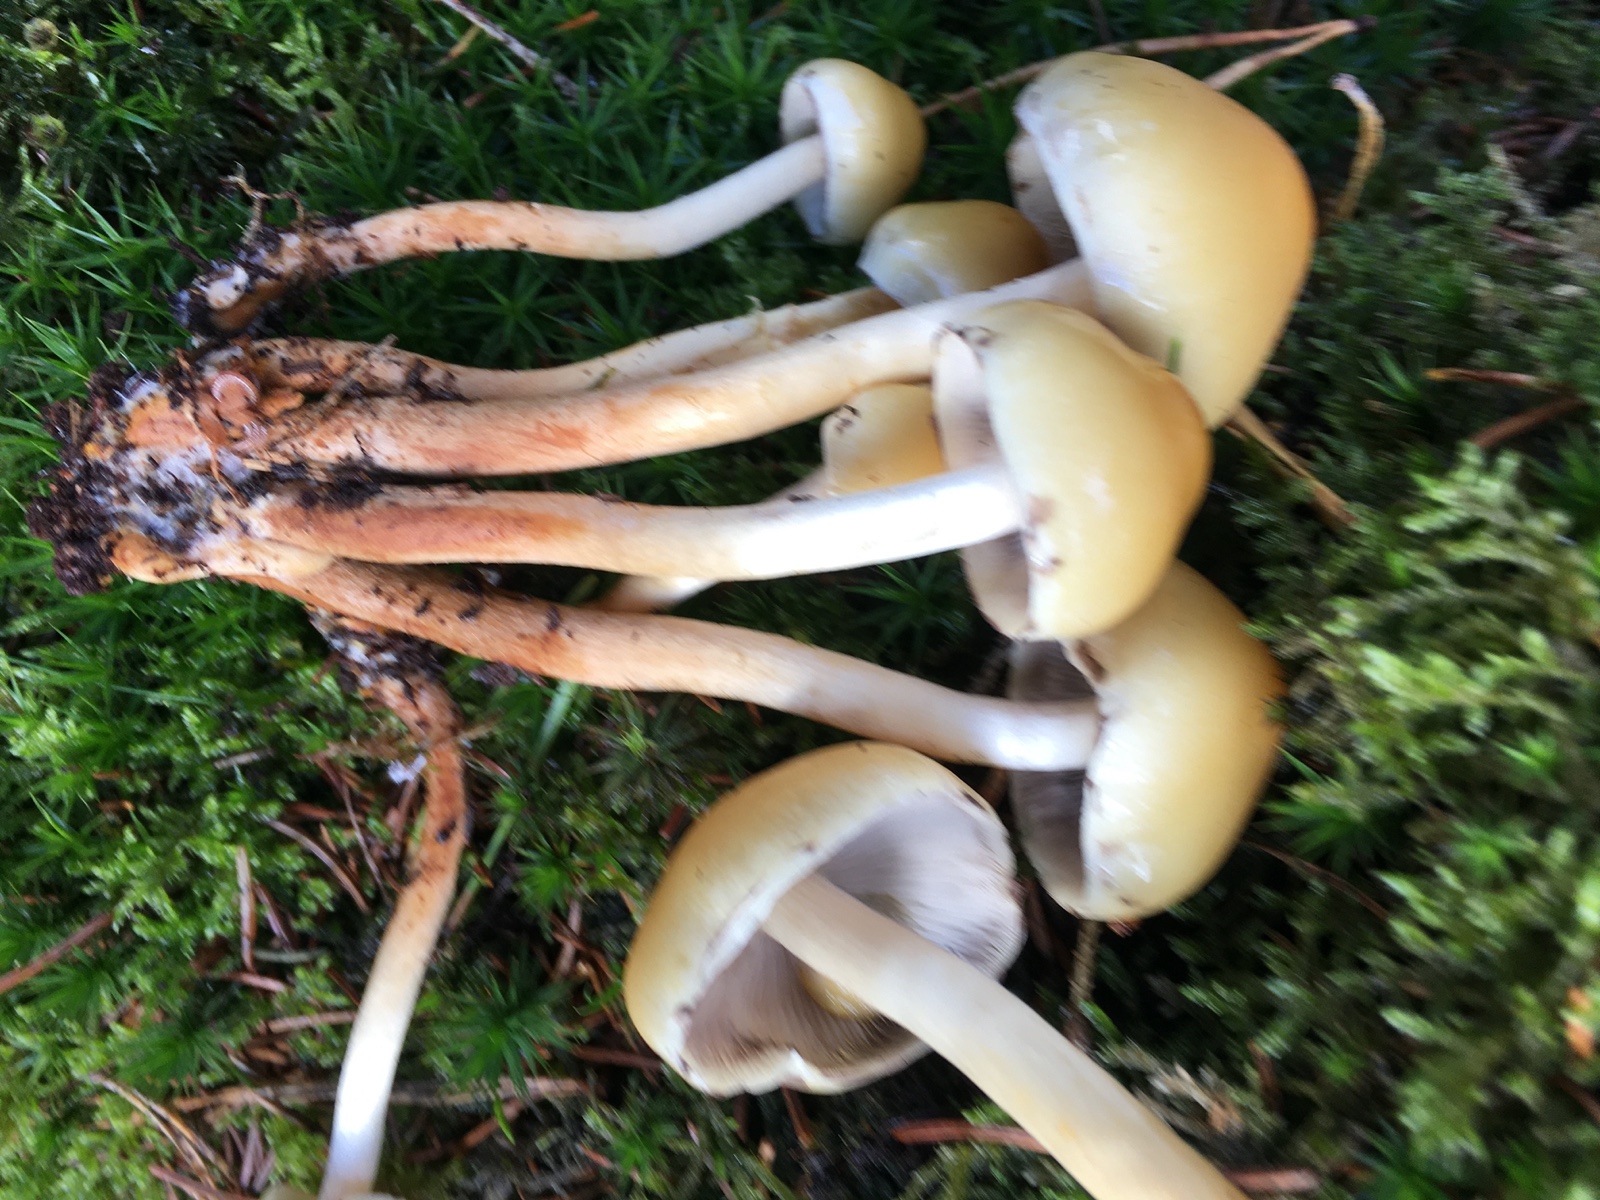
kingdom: Fungi
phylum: Basidiomycota
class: Agaricomycetes
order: Agaricales
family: Strophariaceae
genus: Hypholoma
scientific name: Hypholoma capnoides
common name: gran-svovlhat
